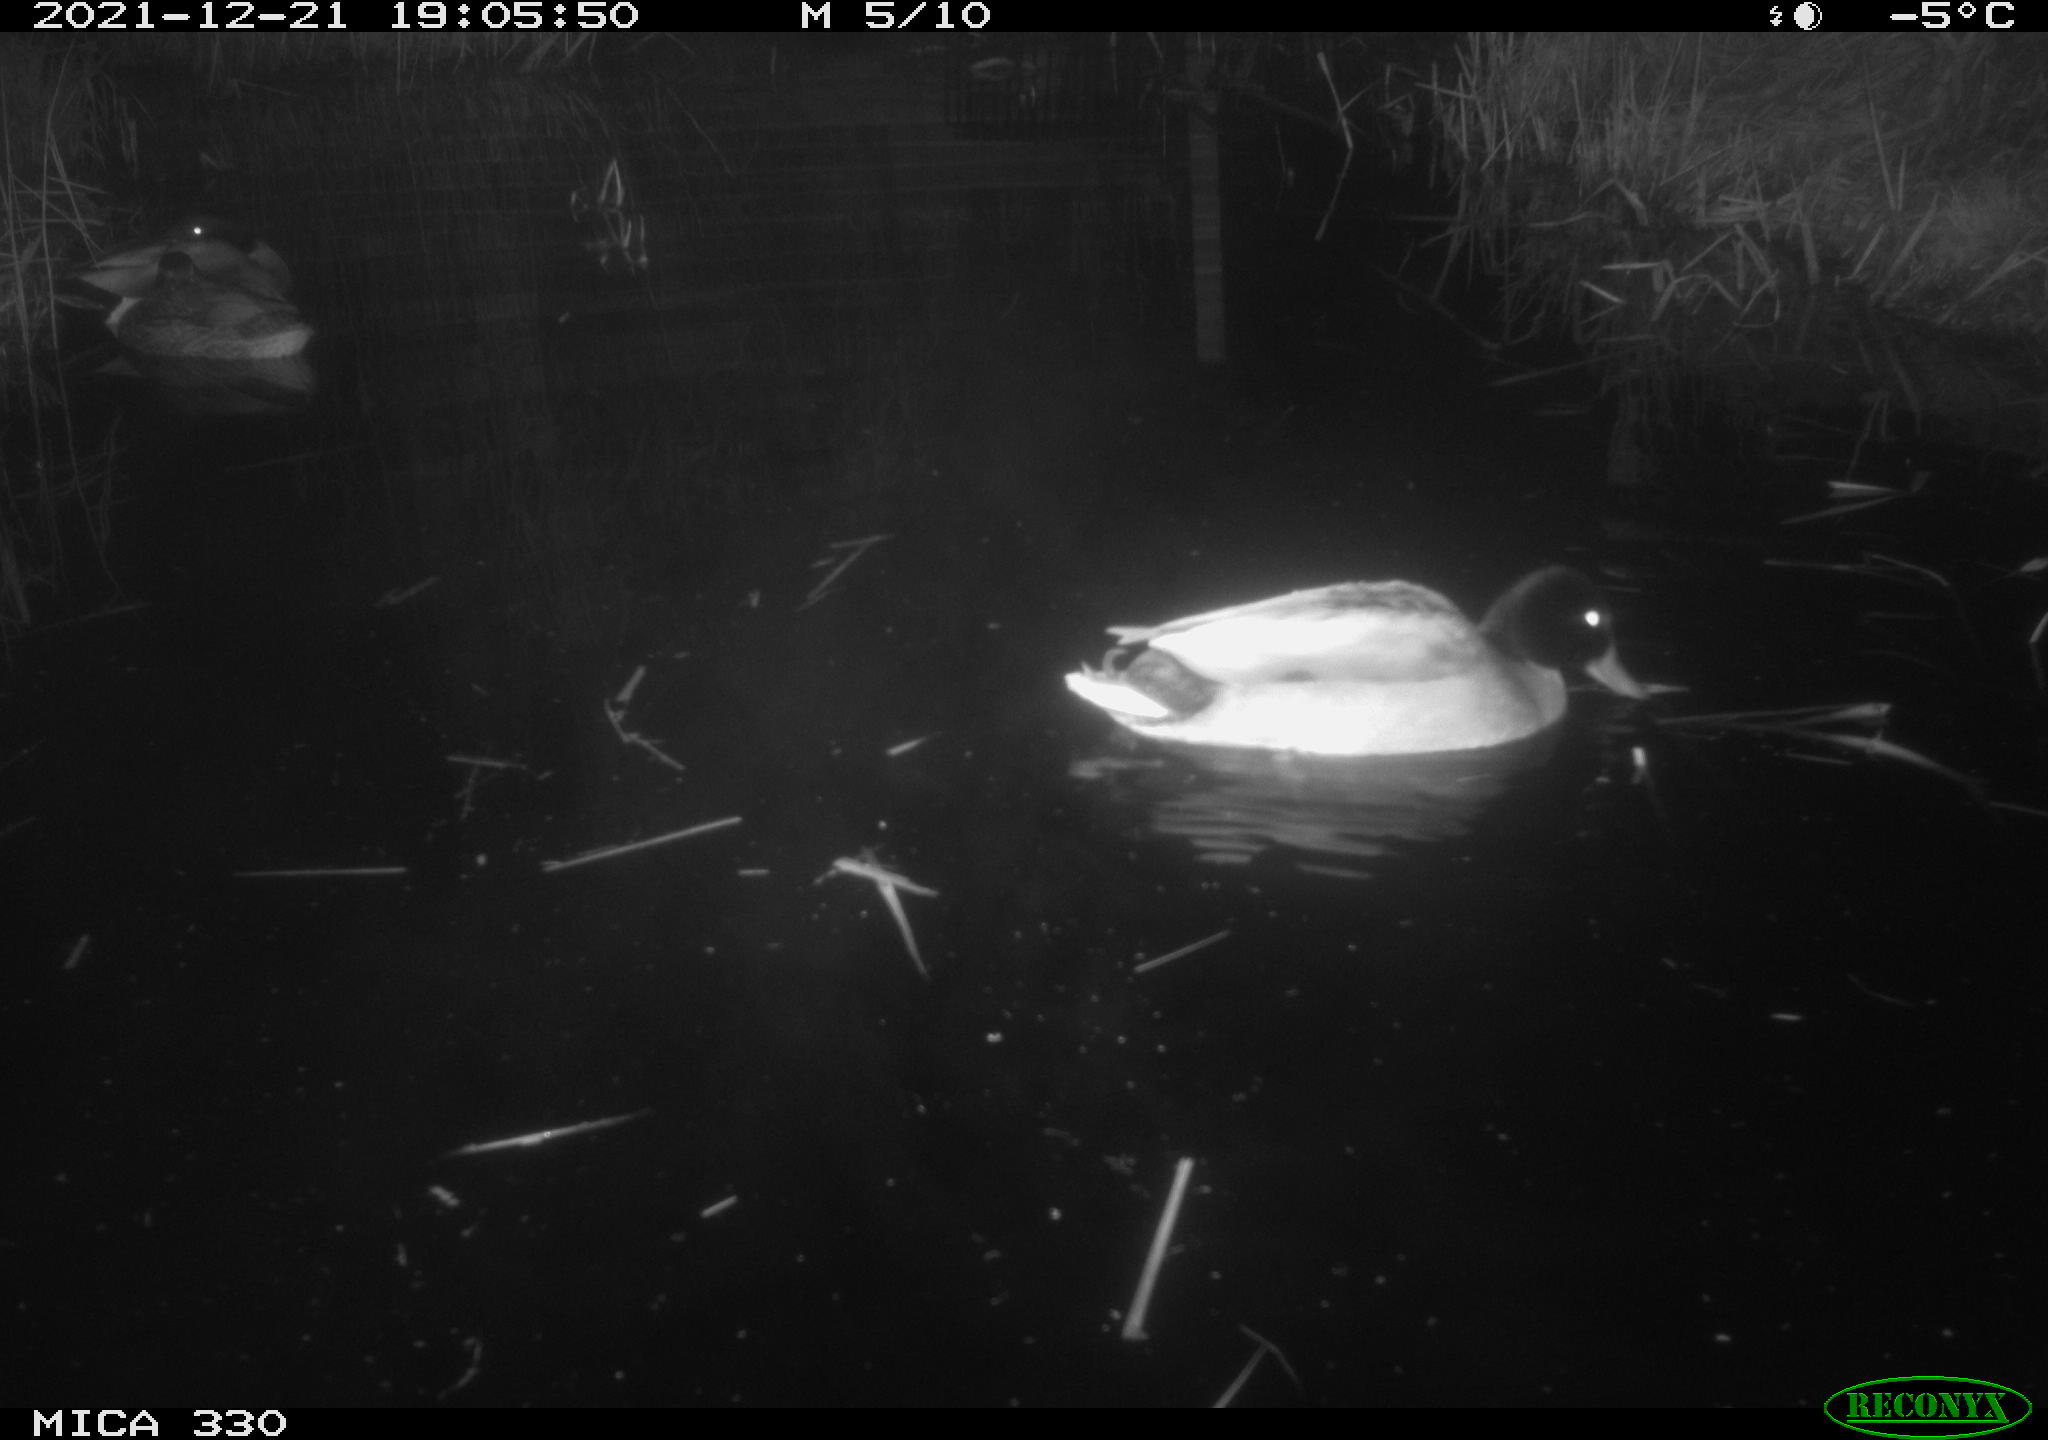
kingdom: Animalia
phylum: Chordata
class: Aves
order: Anseriformes
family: Anatidae
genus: Anas
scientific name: Anas platyrhynchos
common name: Mallard
